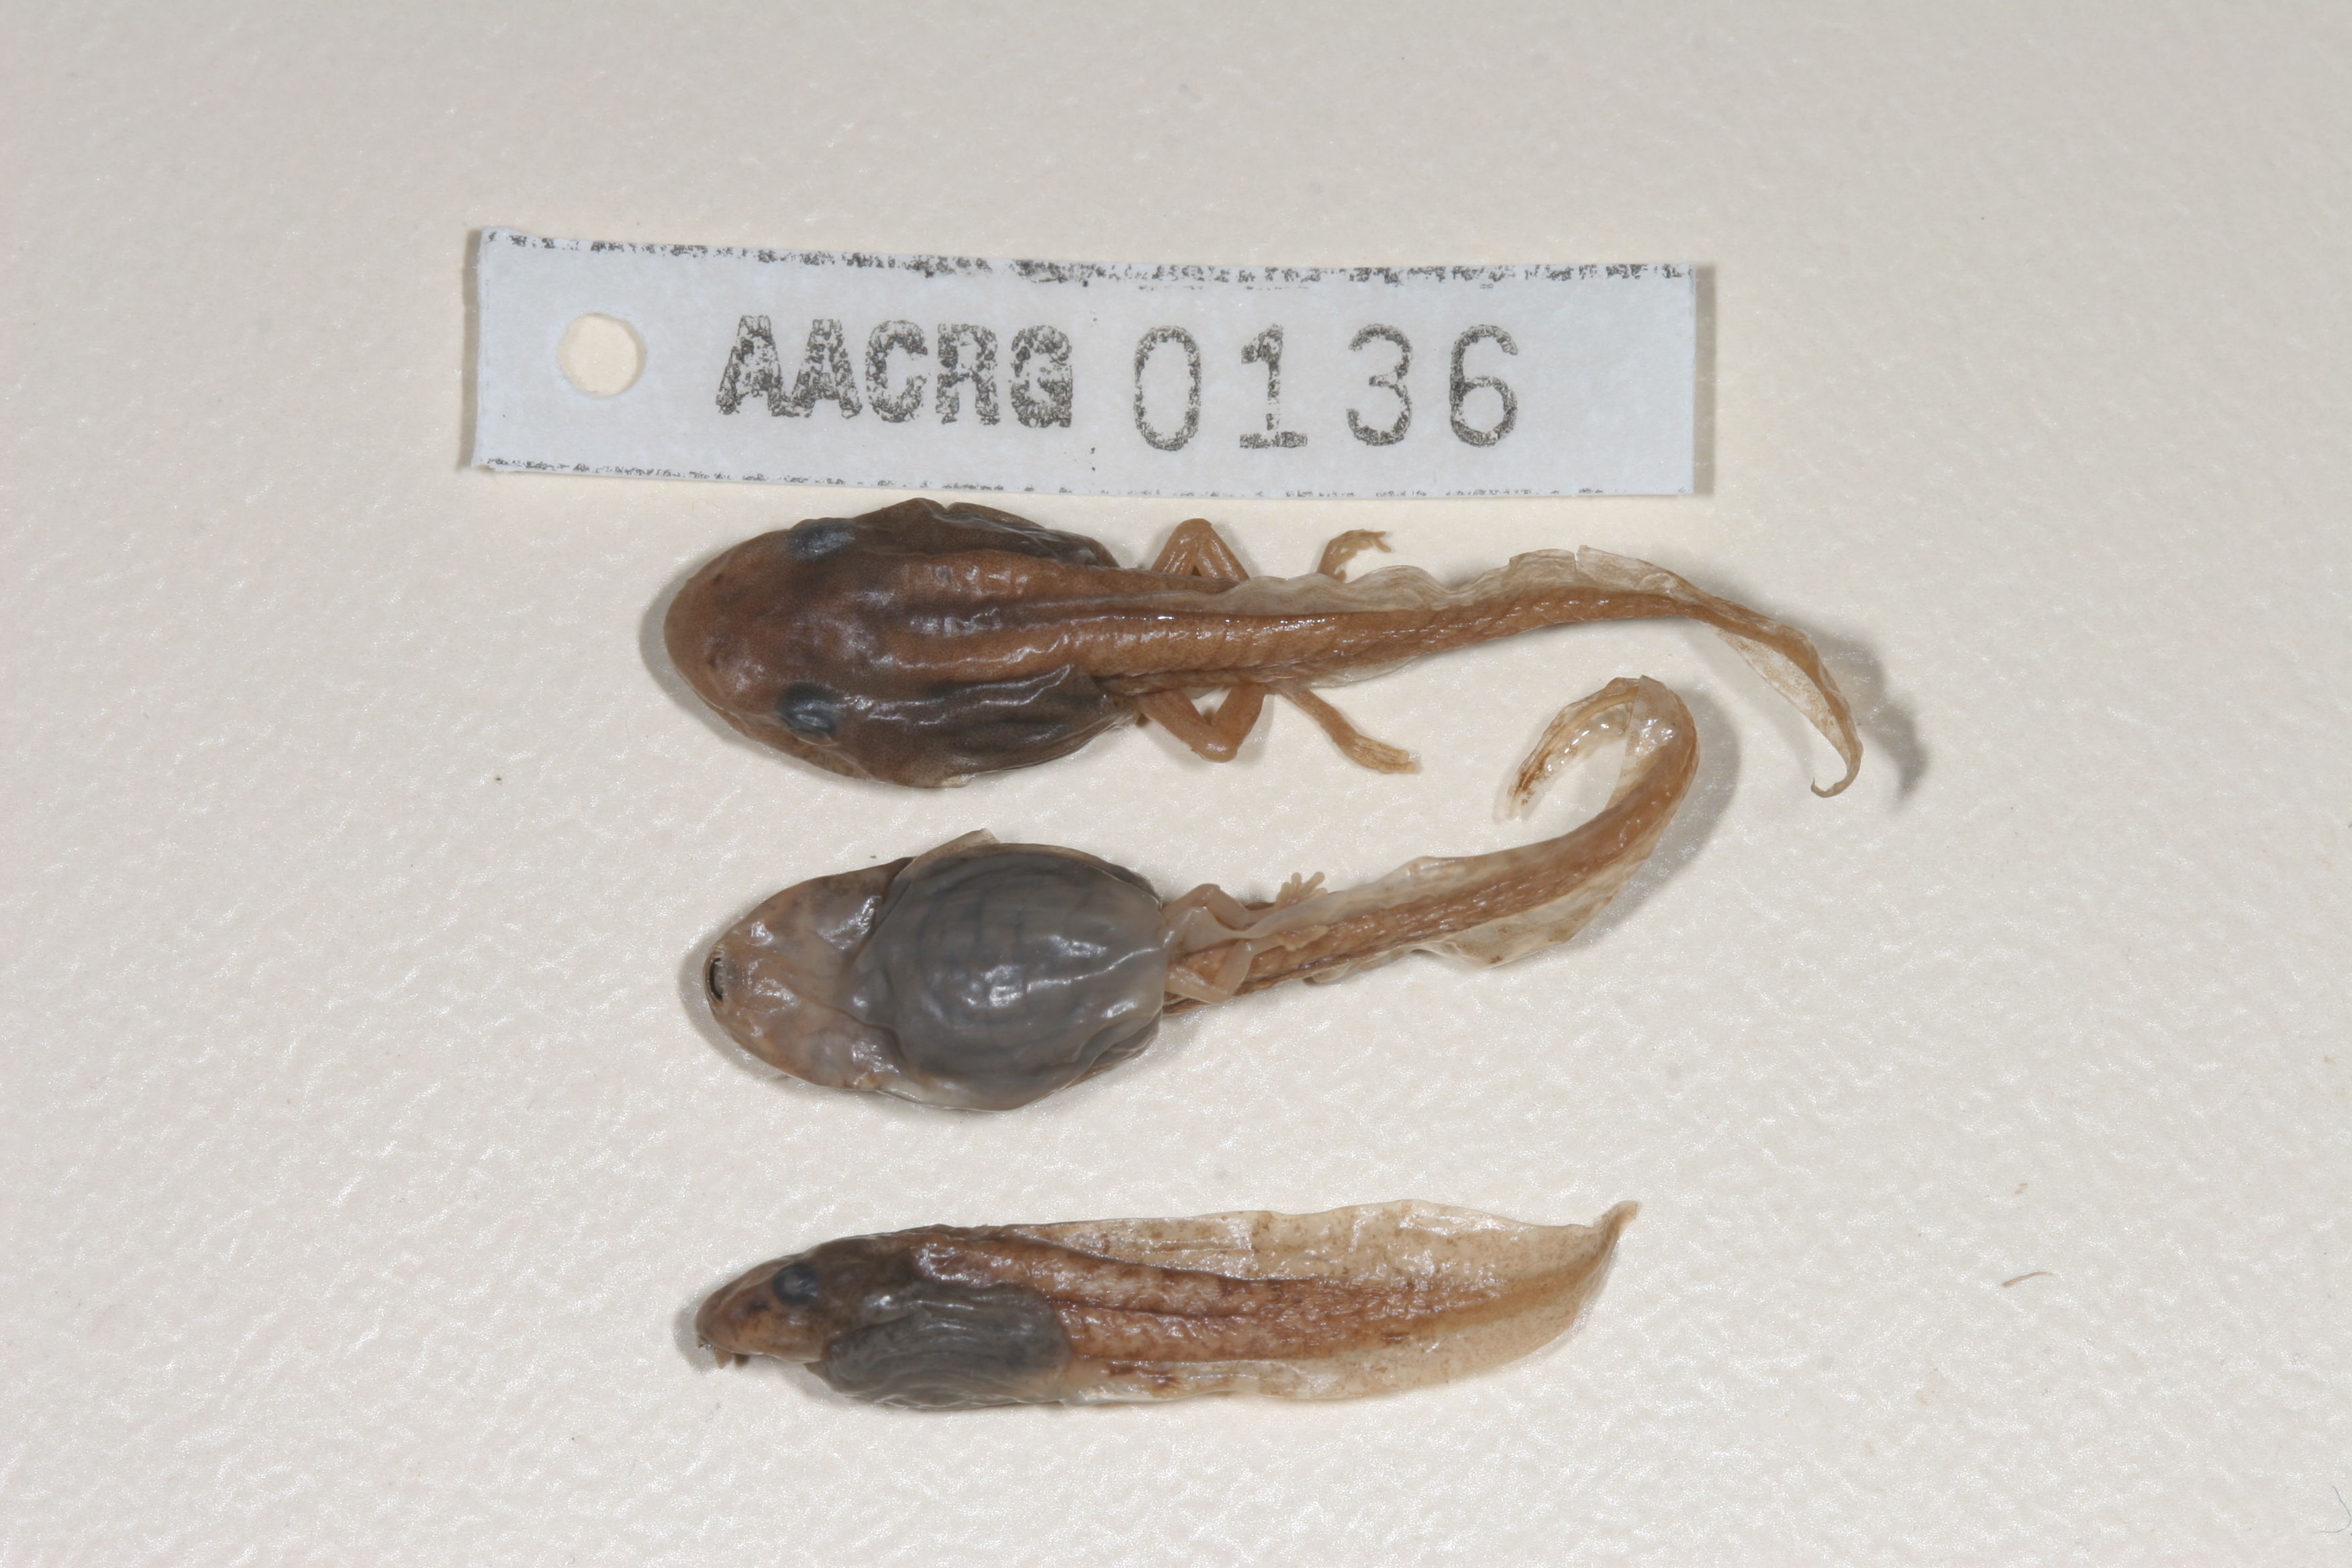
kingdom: Animalia
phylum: Chordata
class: Amphibia
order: Anura
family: Hyperoliidae
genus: Hyperolius
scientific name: Hyperolius semidiscus
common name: Yellow-striped reed frog
